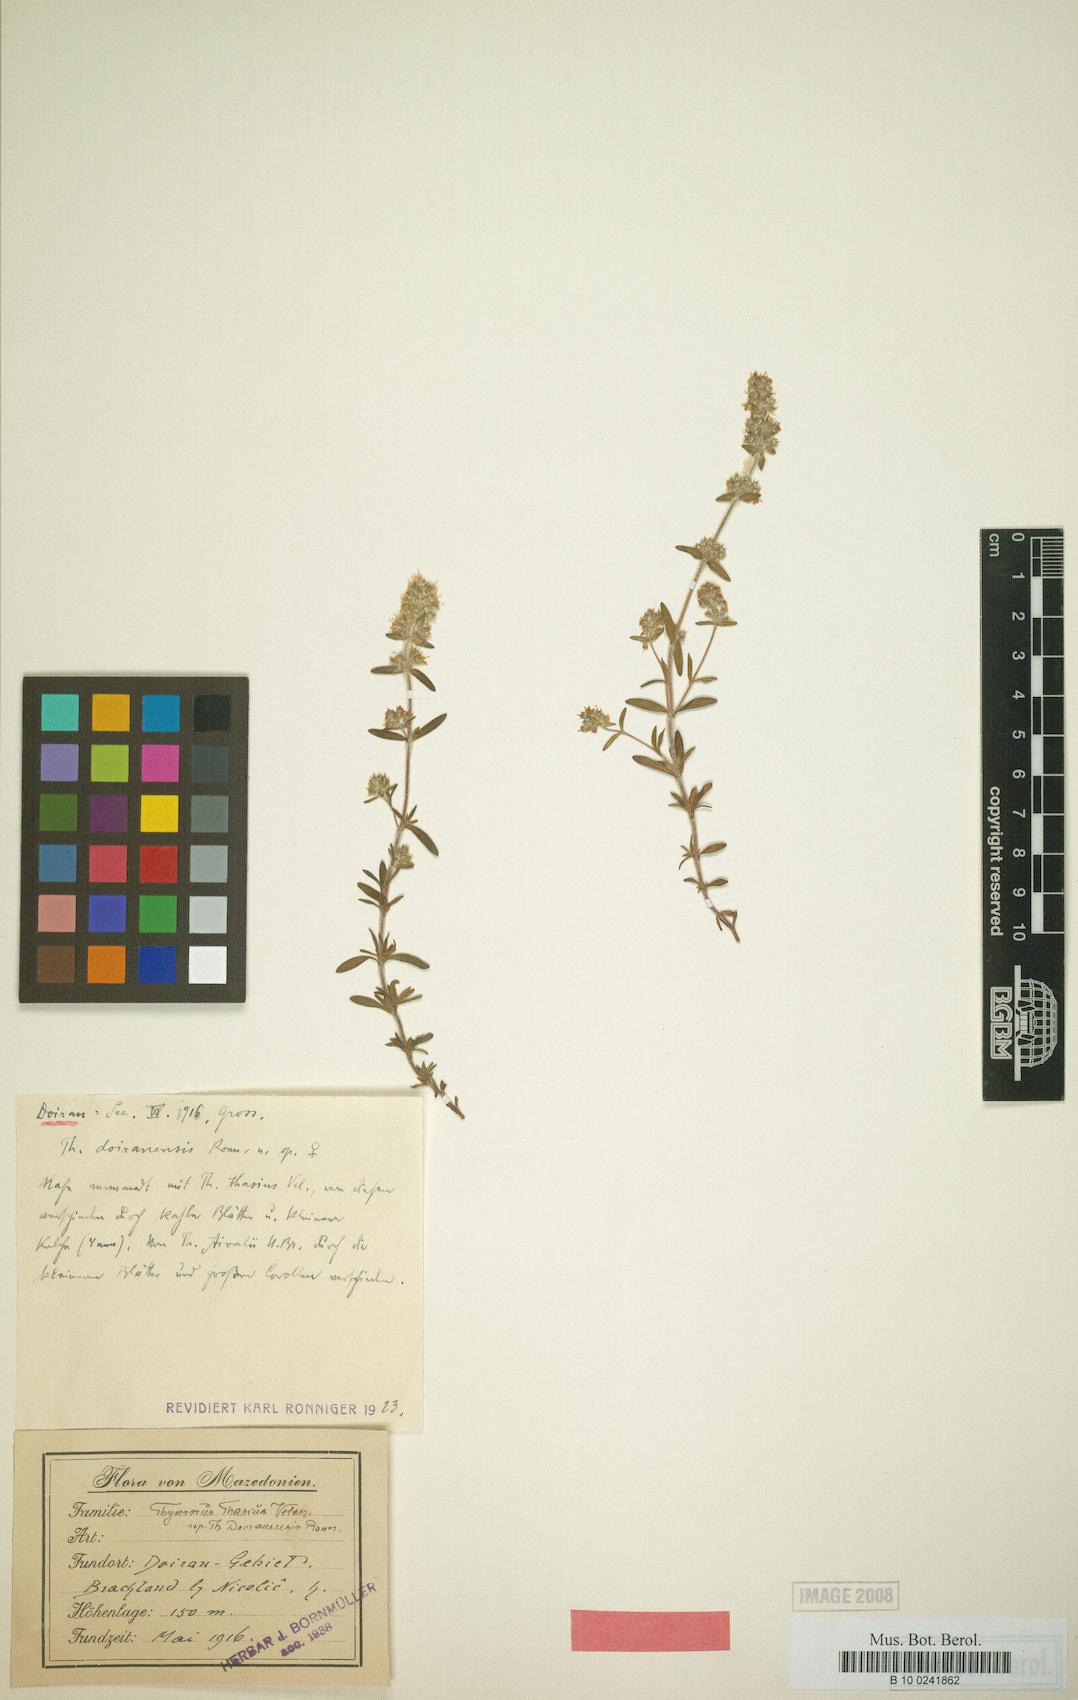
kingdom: Plantae
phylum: Tracheophyta
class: Magnoliopsida
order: Lamiales
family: Lamiaceae
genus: Thymus
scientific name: Thymus doiraniensis
